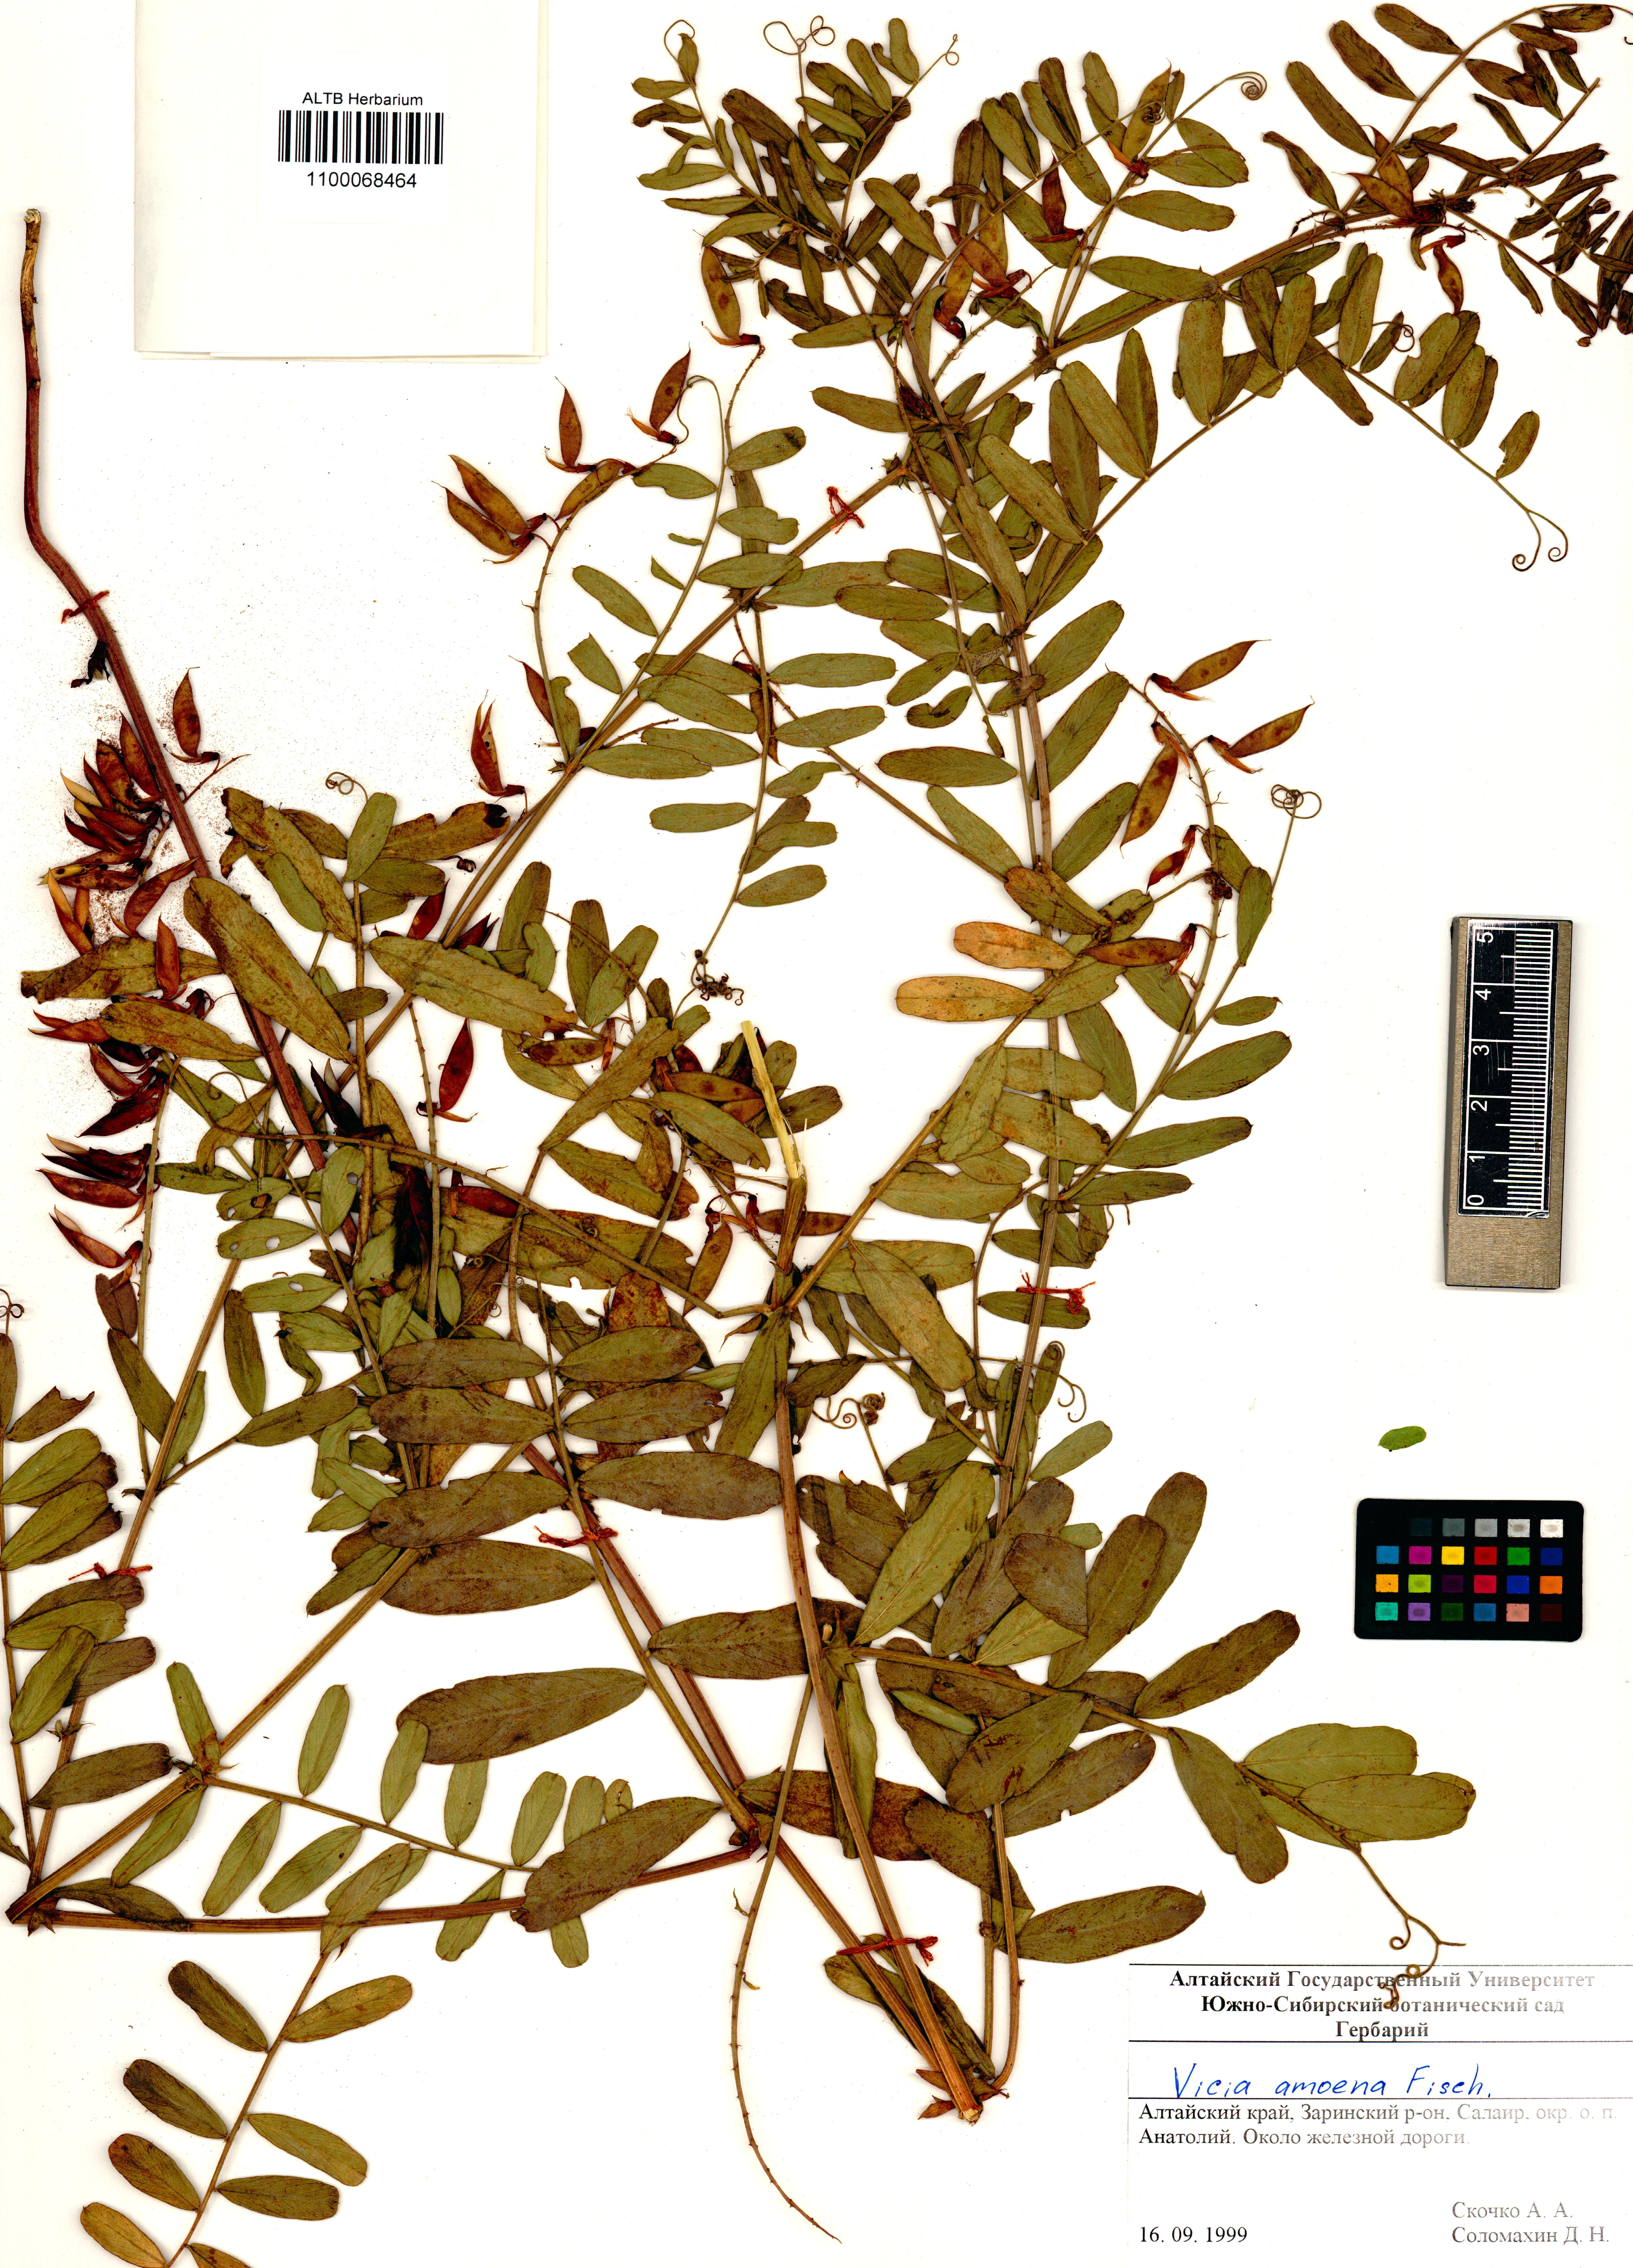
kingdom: Plantae
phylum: Tracheophyta
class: Magnoliopsida
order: Fabales
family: Fabaceae
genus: Vicia
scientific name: Vicia amoena
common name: Cheder ebs
